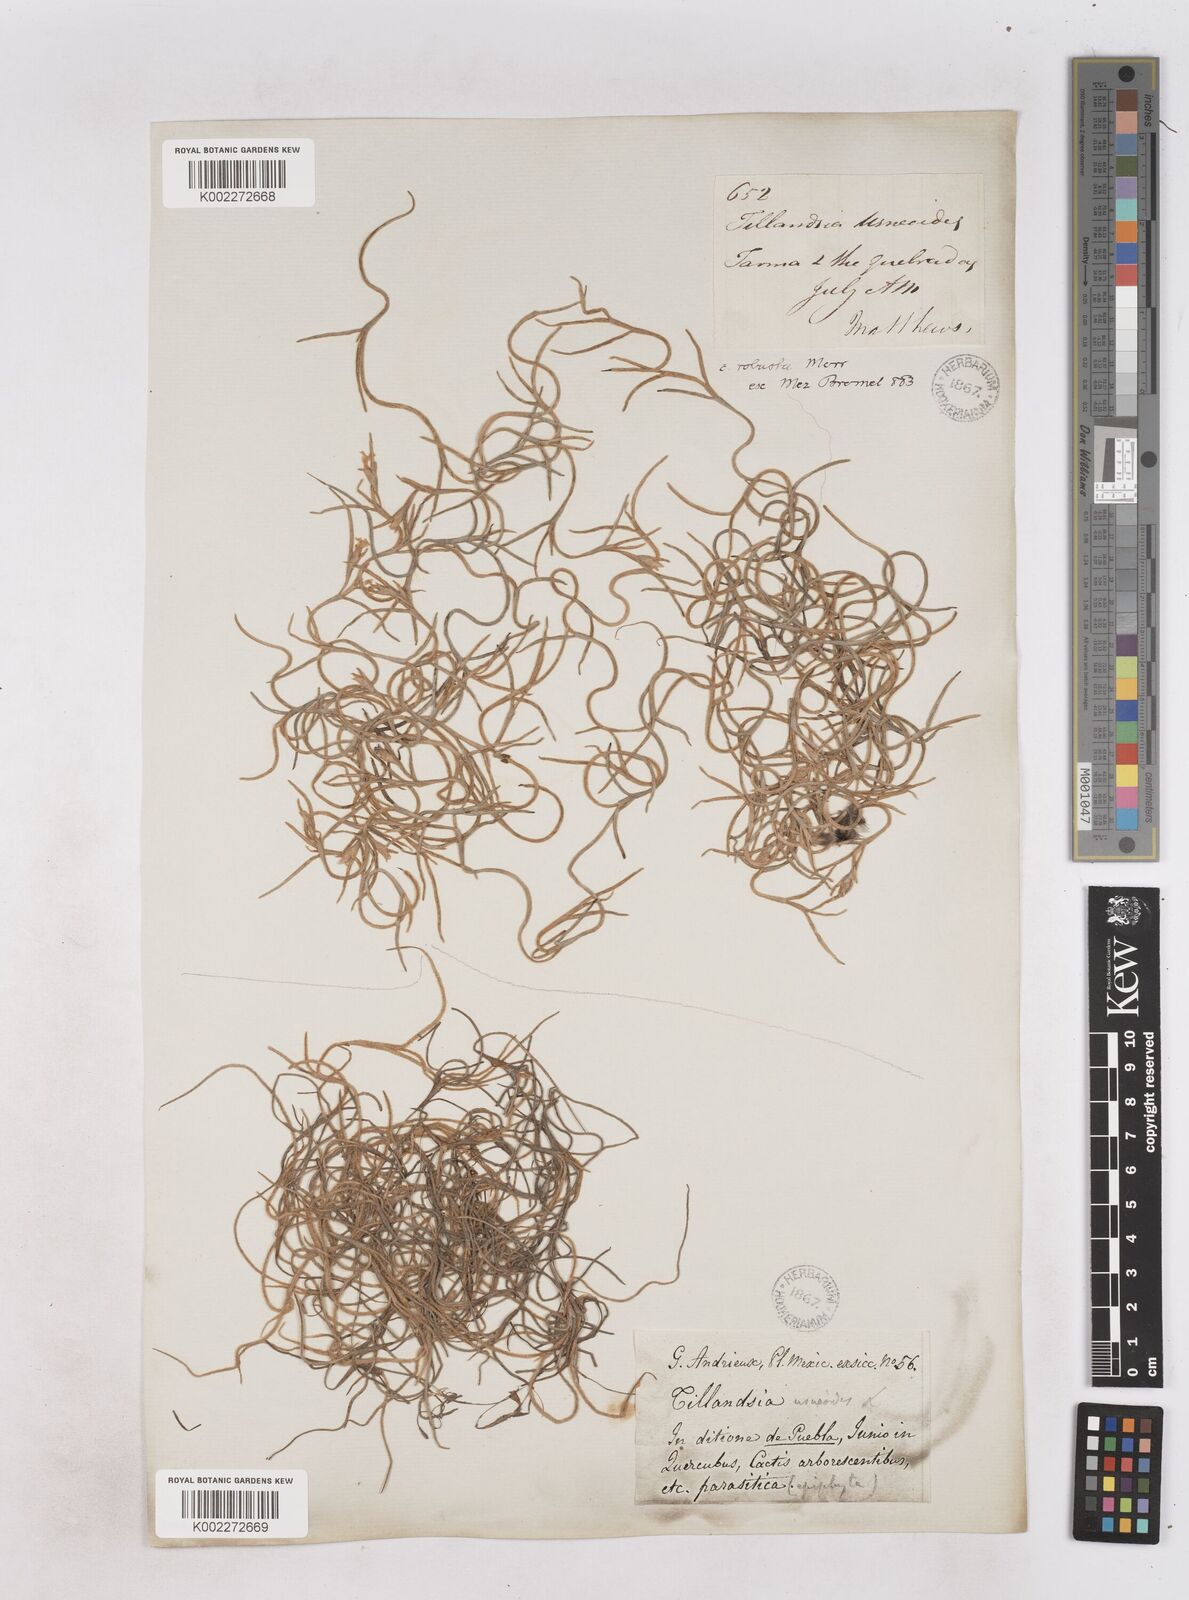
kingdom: Plantae
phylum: Tracheophyta
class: Liliopsida
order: Poales
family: Bromeliaceae
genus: Tillandsia
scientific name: Tillandsia usneoides
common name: Spanish moss
